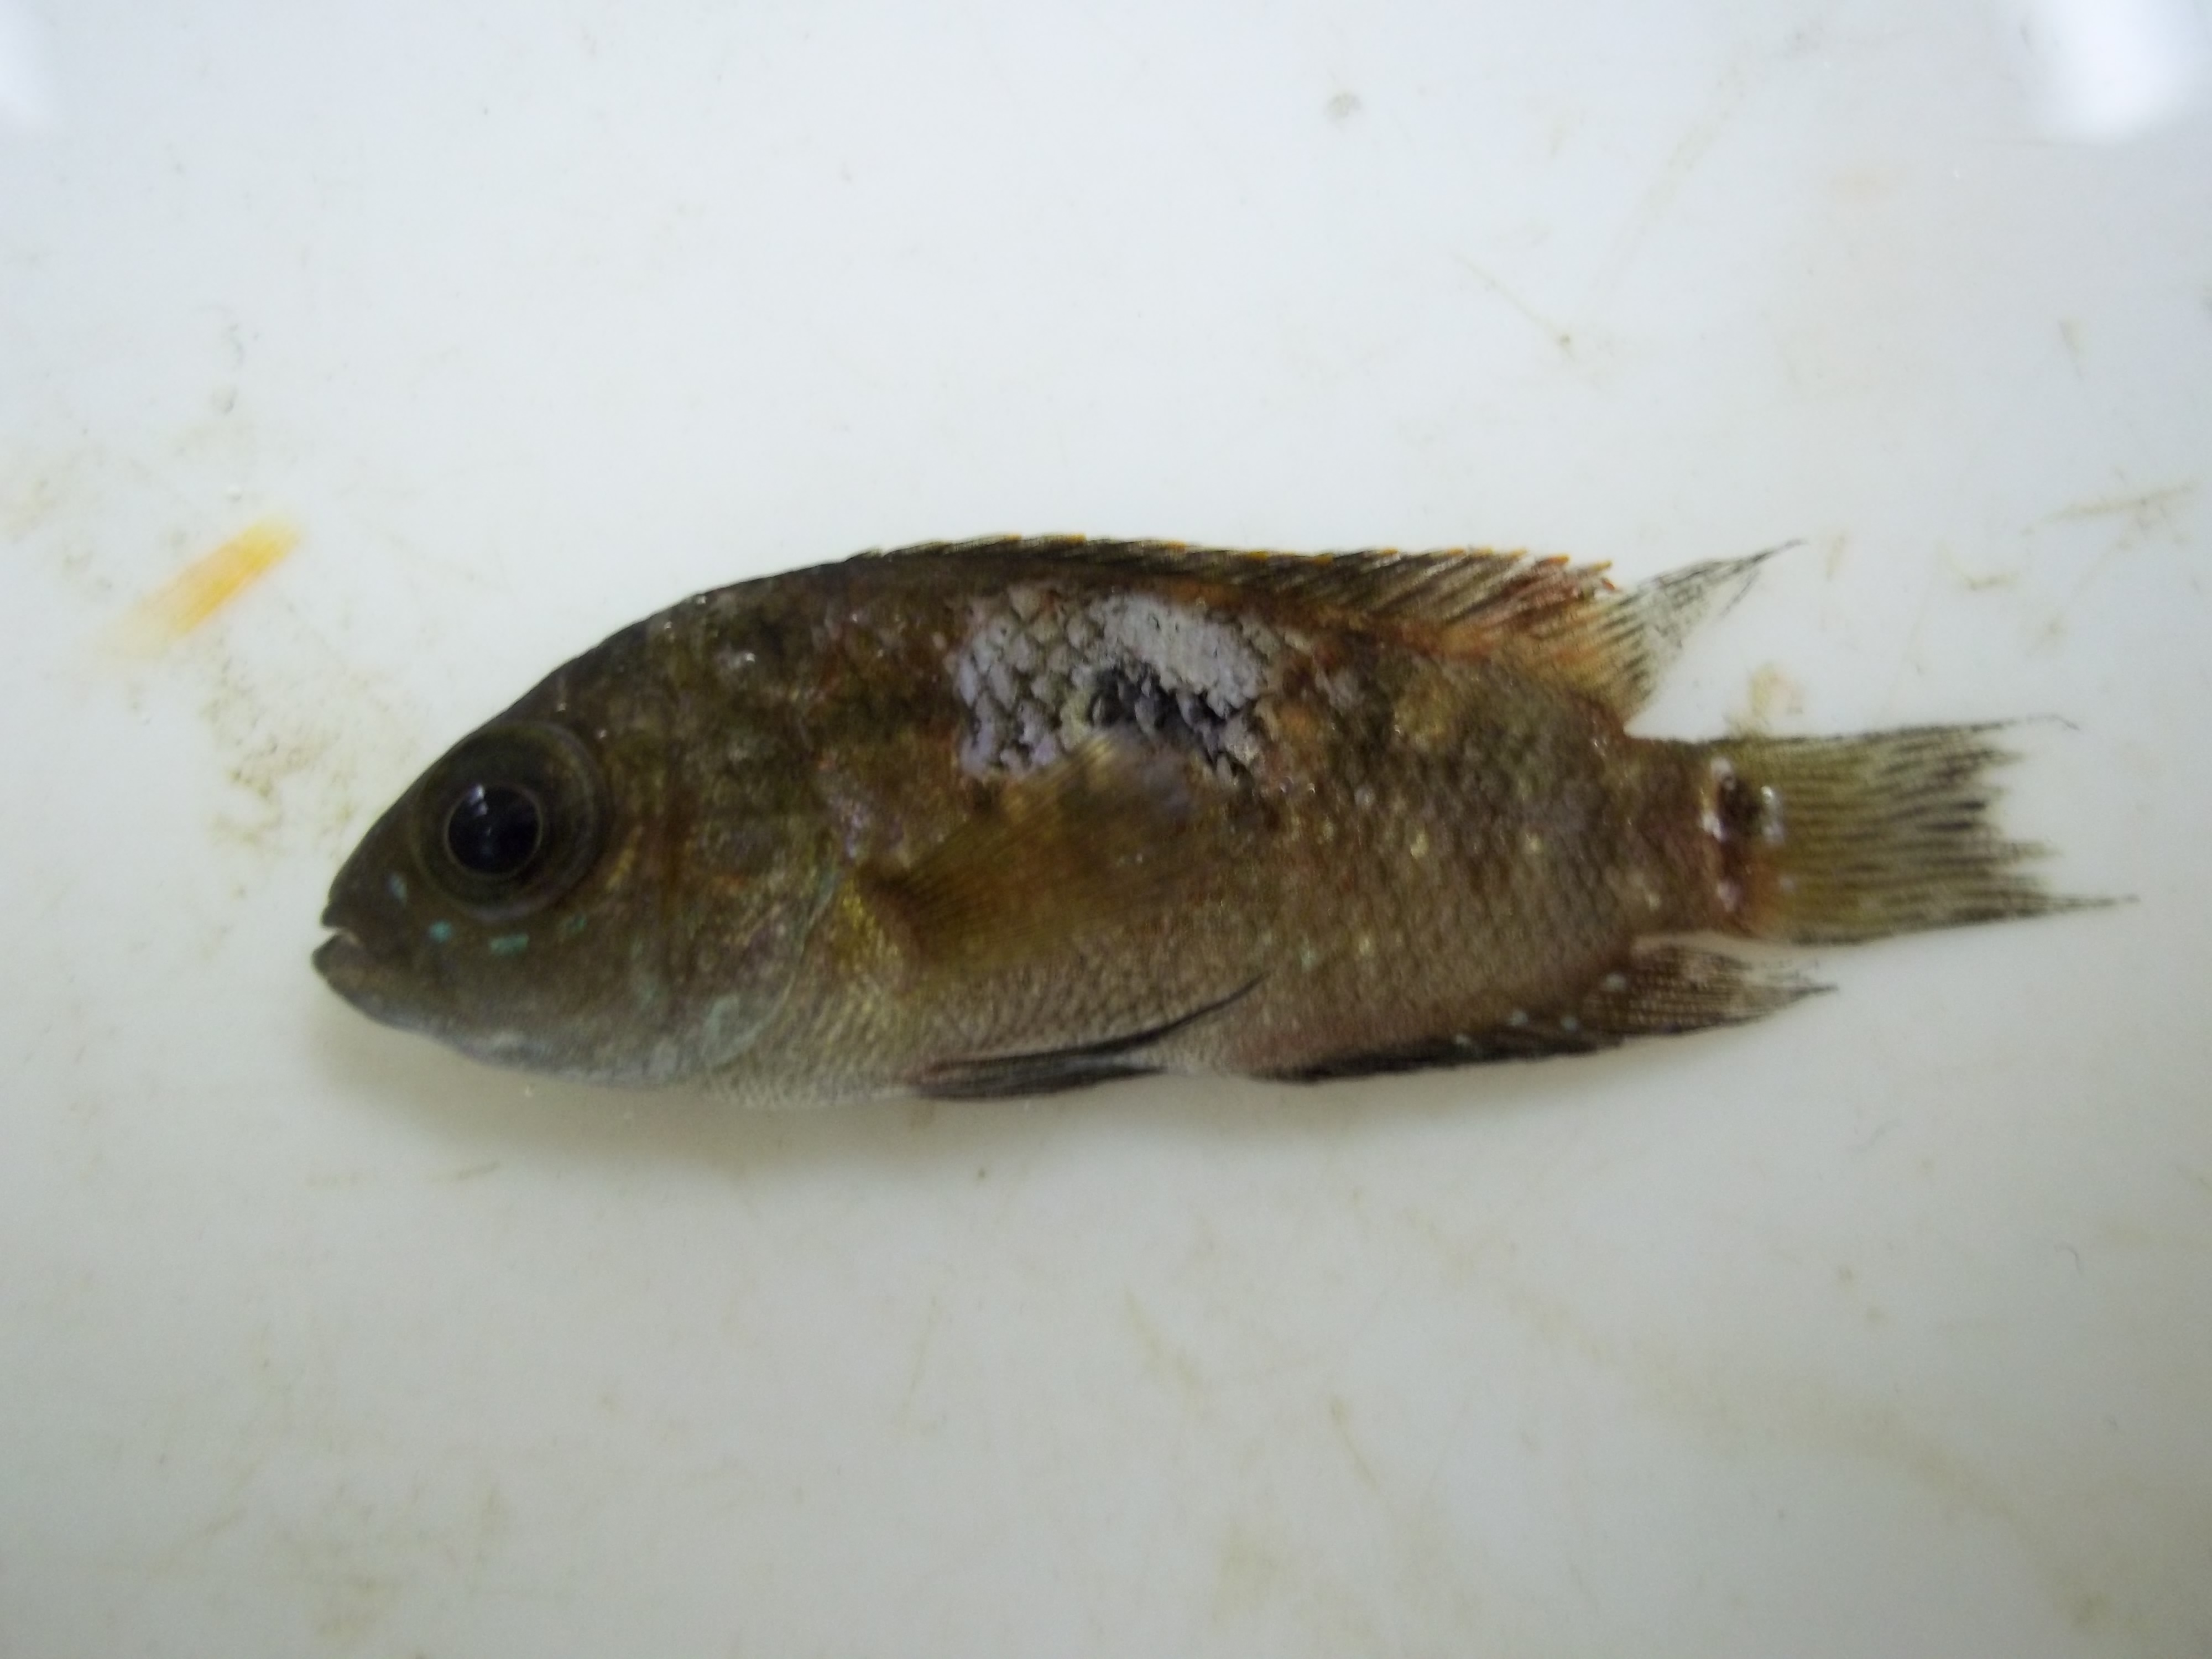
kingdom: Animalia
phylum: Chordata
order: Perciformes
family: Cichlidae
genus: Andinoacara
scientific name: Andinoacara rivulatus
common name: Green terror
